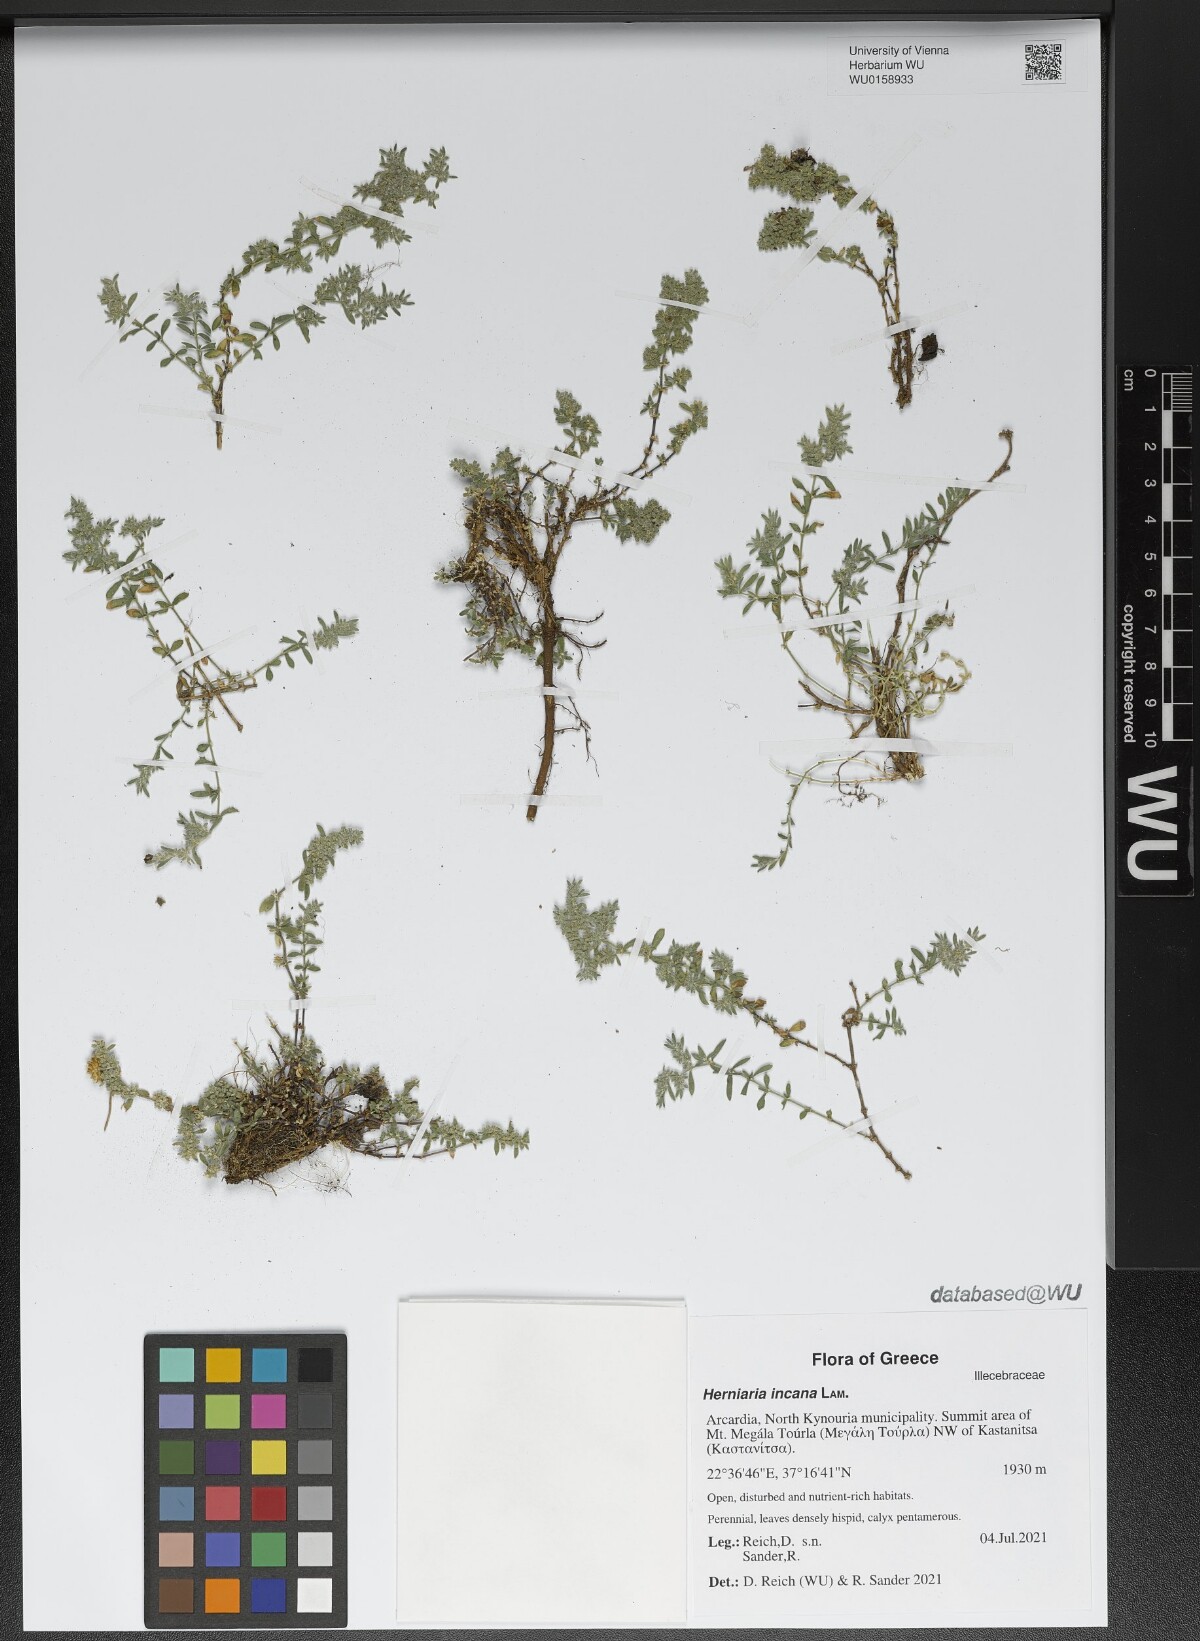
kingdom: Plantae
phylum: Tracheophyta
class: Magnoliopsida
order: Caryophyllales
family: Caryophyllaceae
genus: Herniaria
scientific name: Herniaria incana
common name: Gray rupturewort
